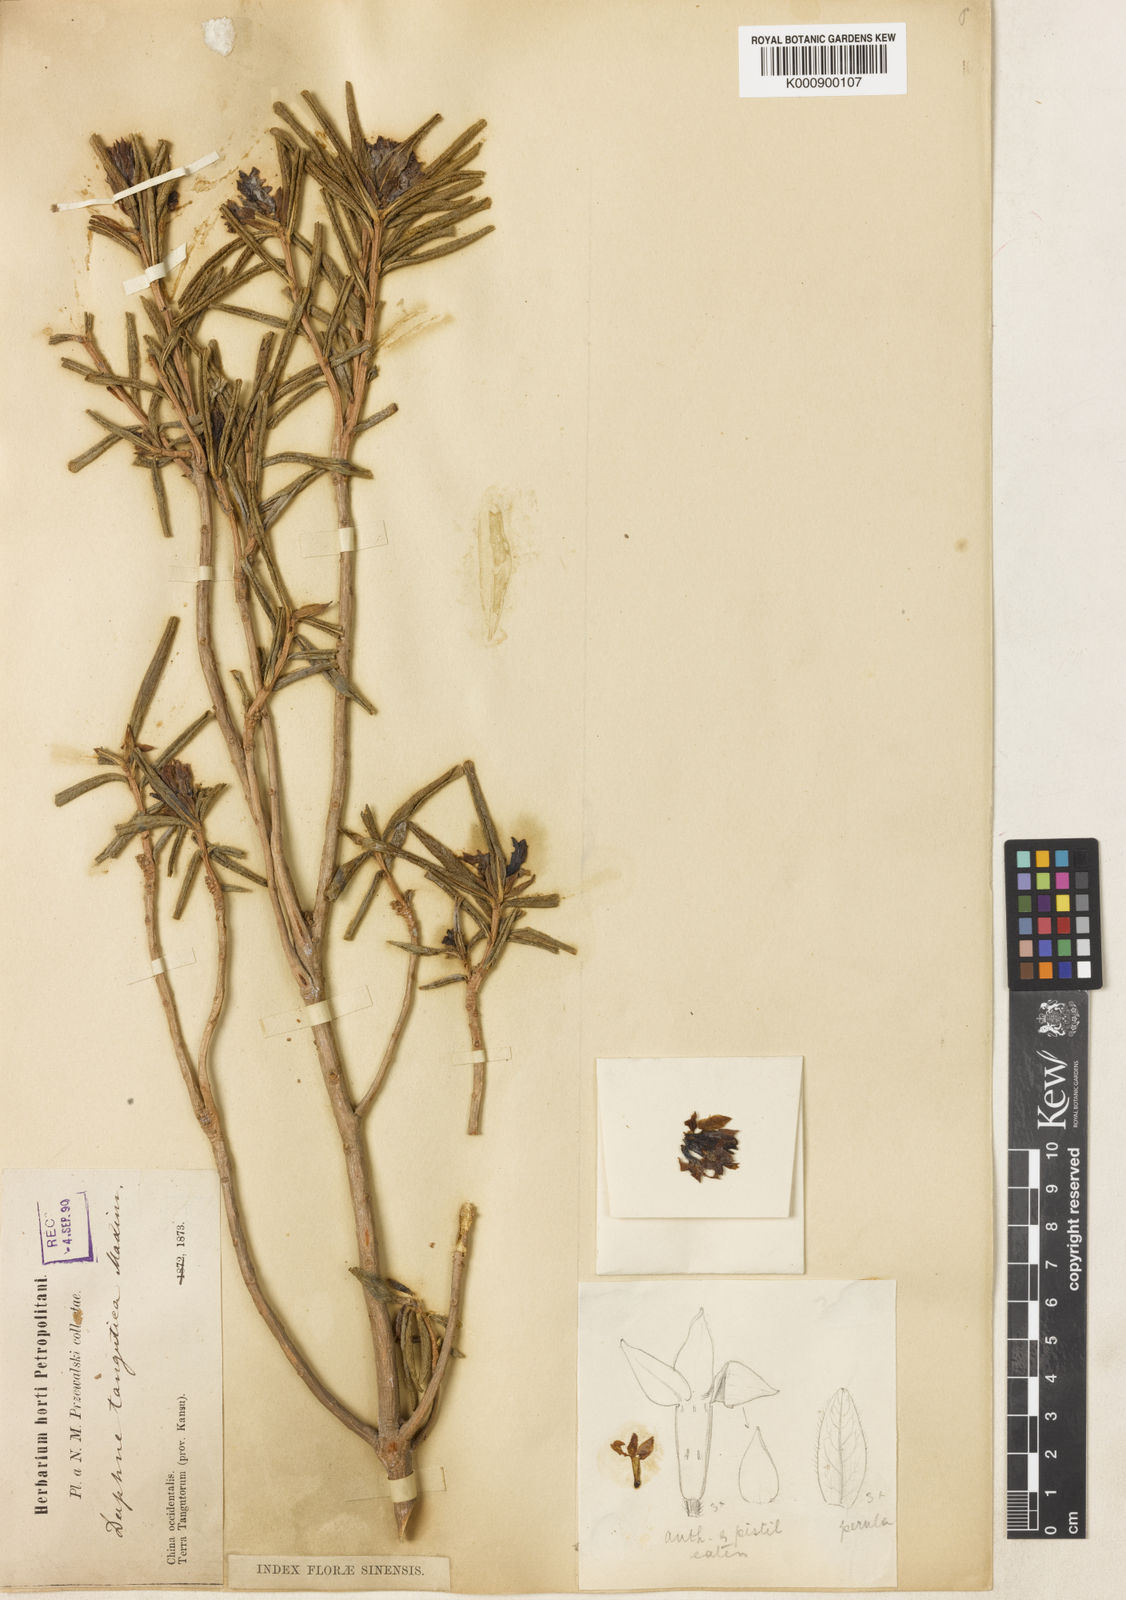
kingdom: Plantae
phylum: Tracheophyta
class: Magnoliopsida
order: Malvales
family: Thymelaeaceae
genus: Daphne
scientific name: Daphne tangutica
